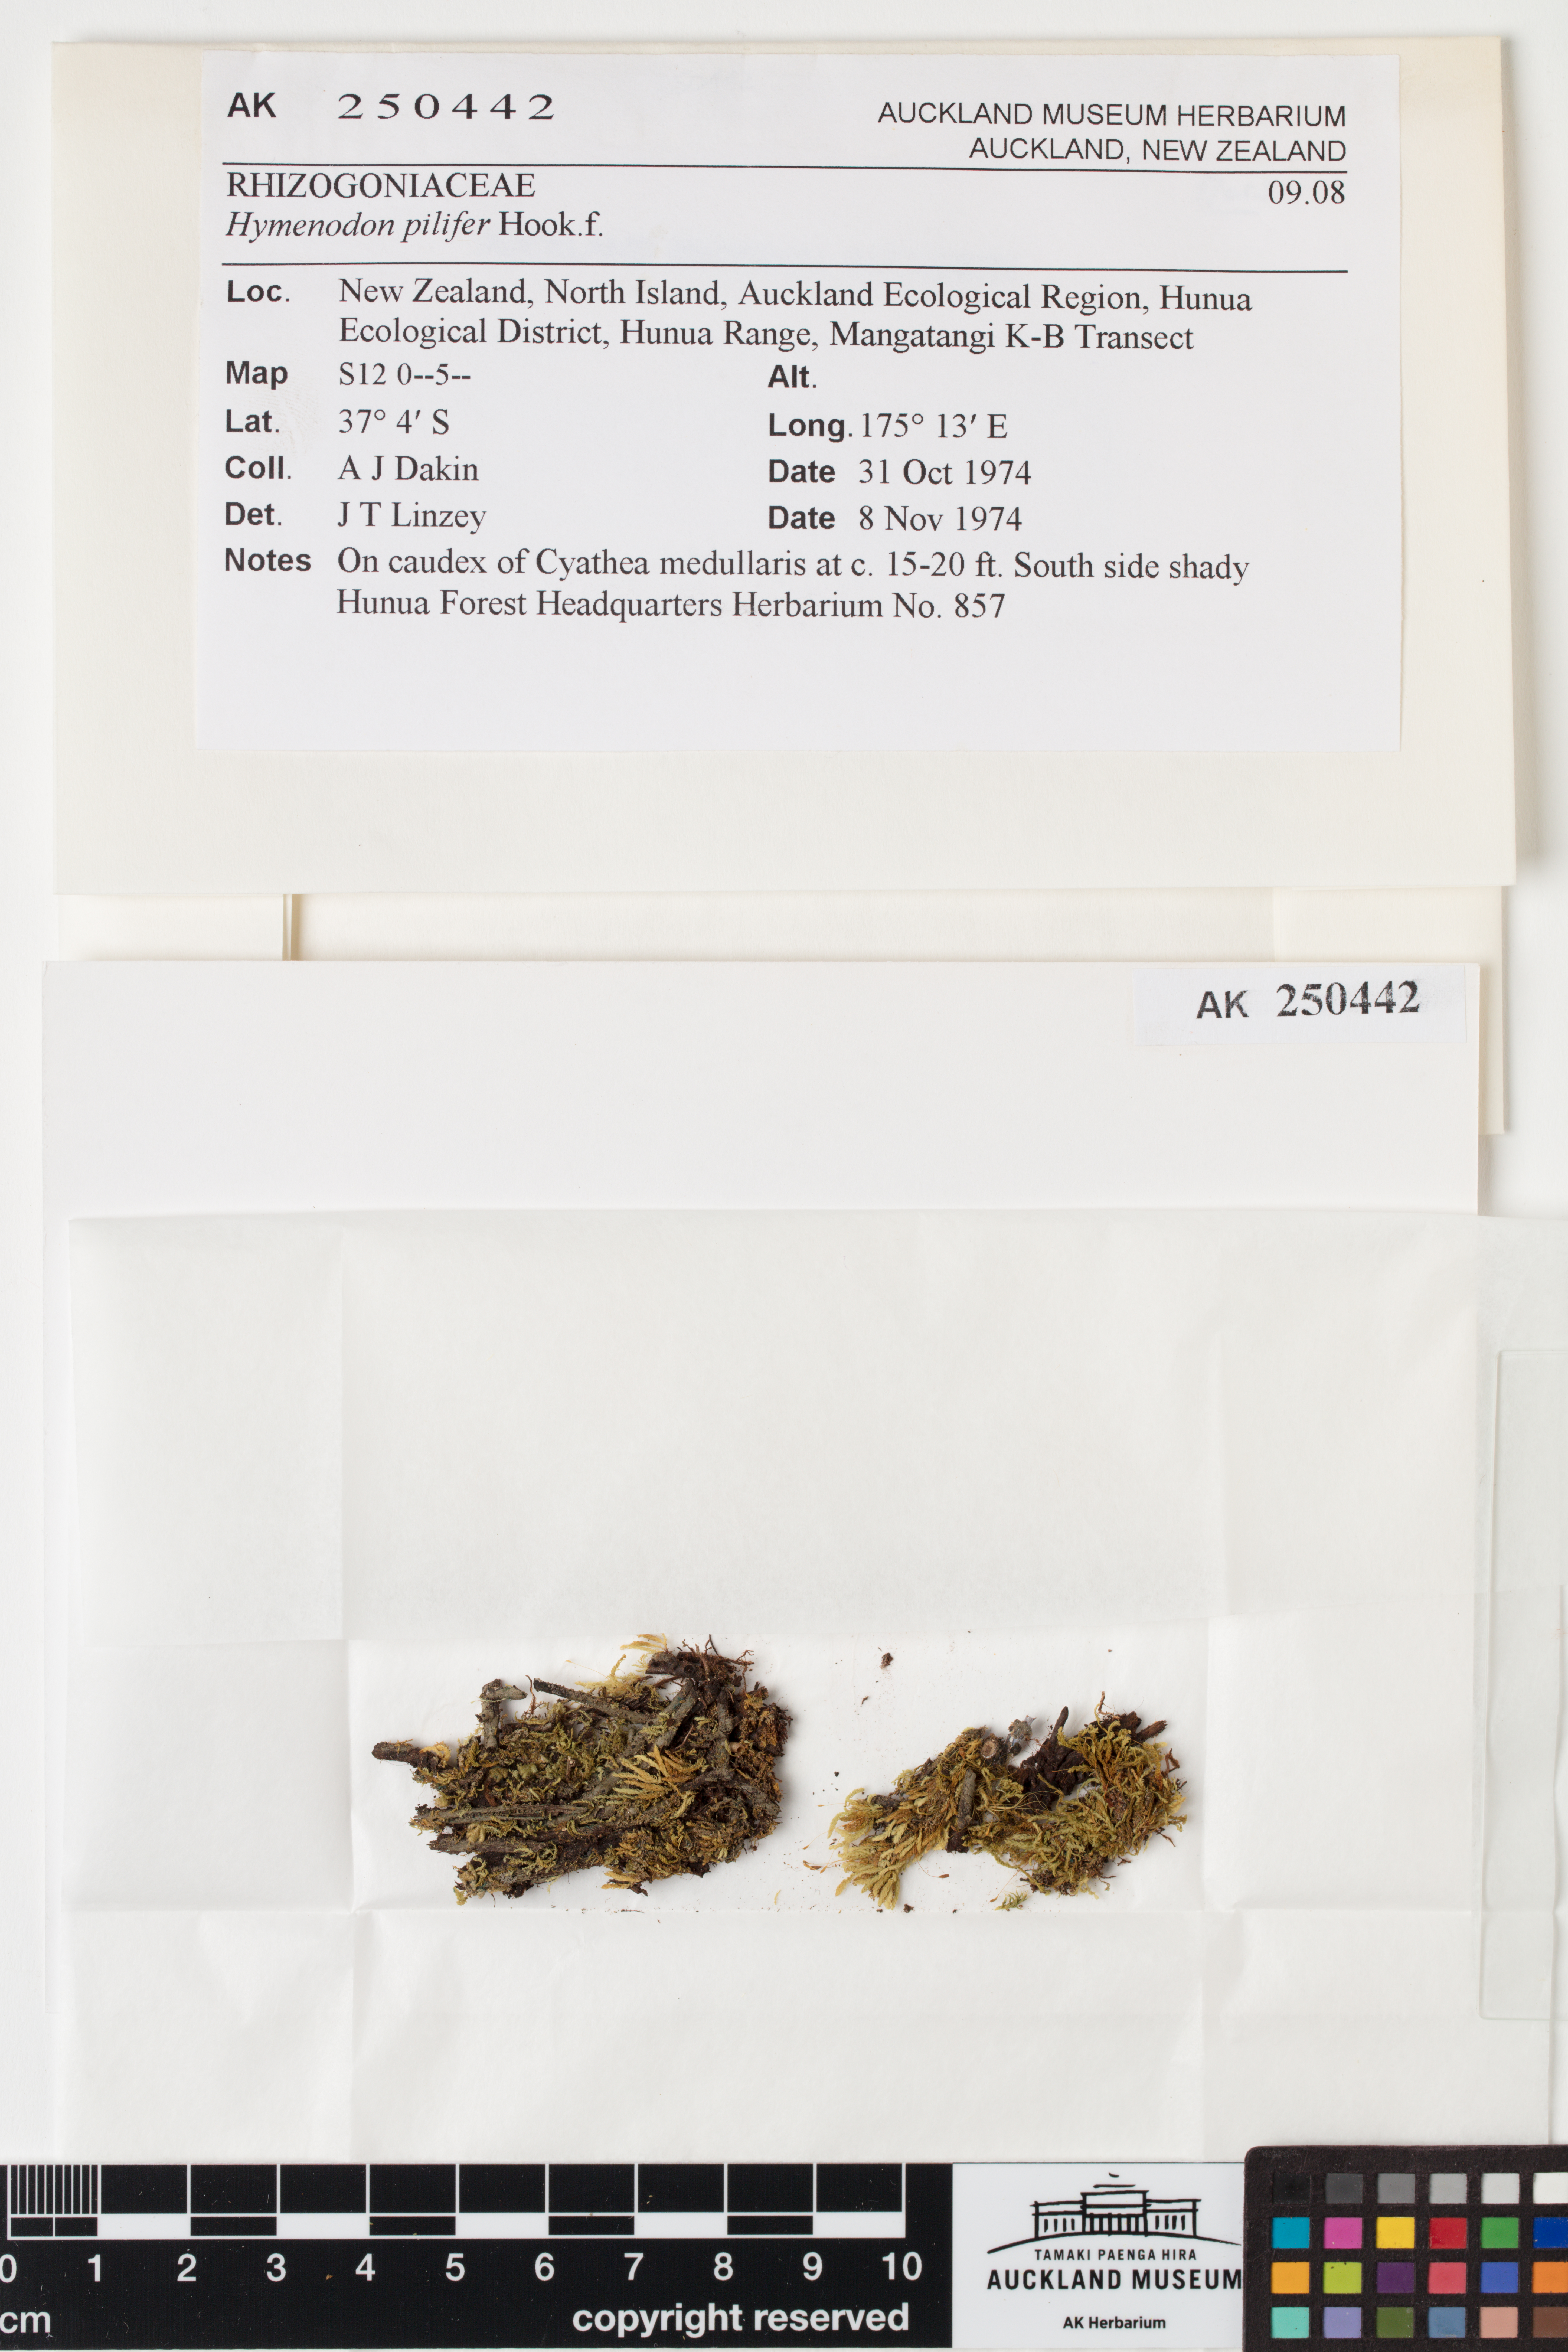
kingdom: Plantae
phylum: Bryophyta
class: Bryopsida
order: Orthodontiales
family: Orthodontiaceae
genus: Hymenodon
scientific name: Hymenodon pilifer
